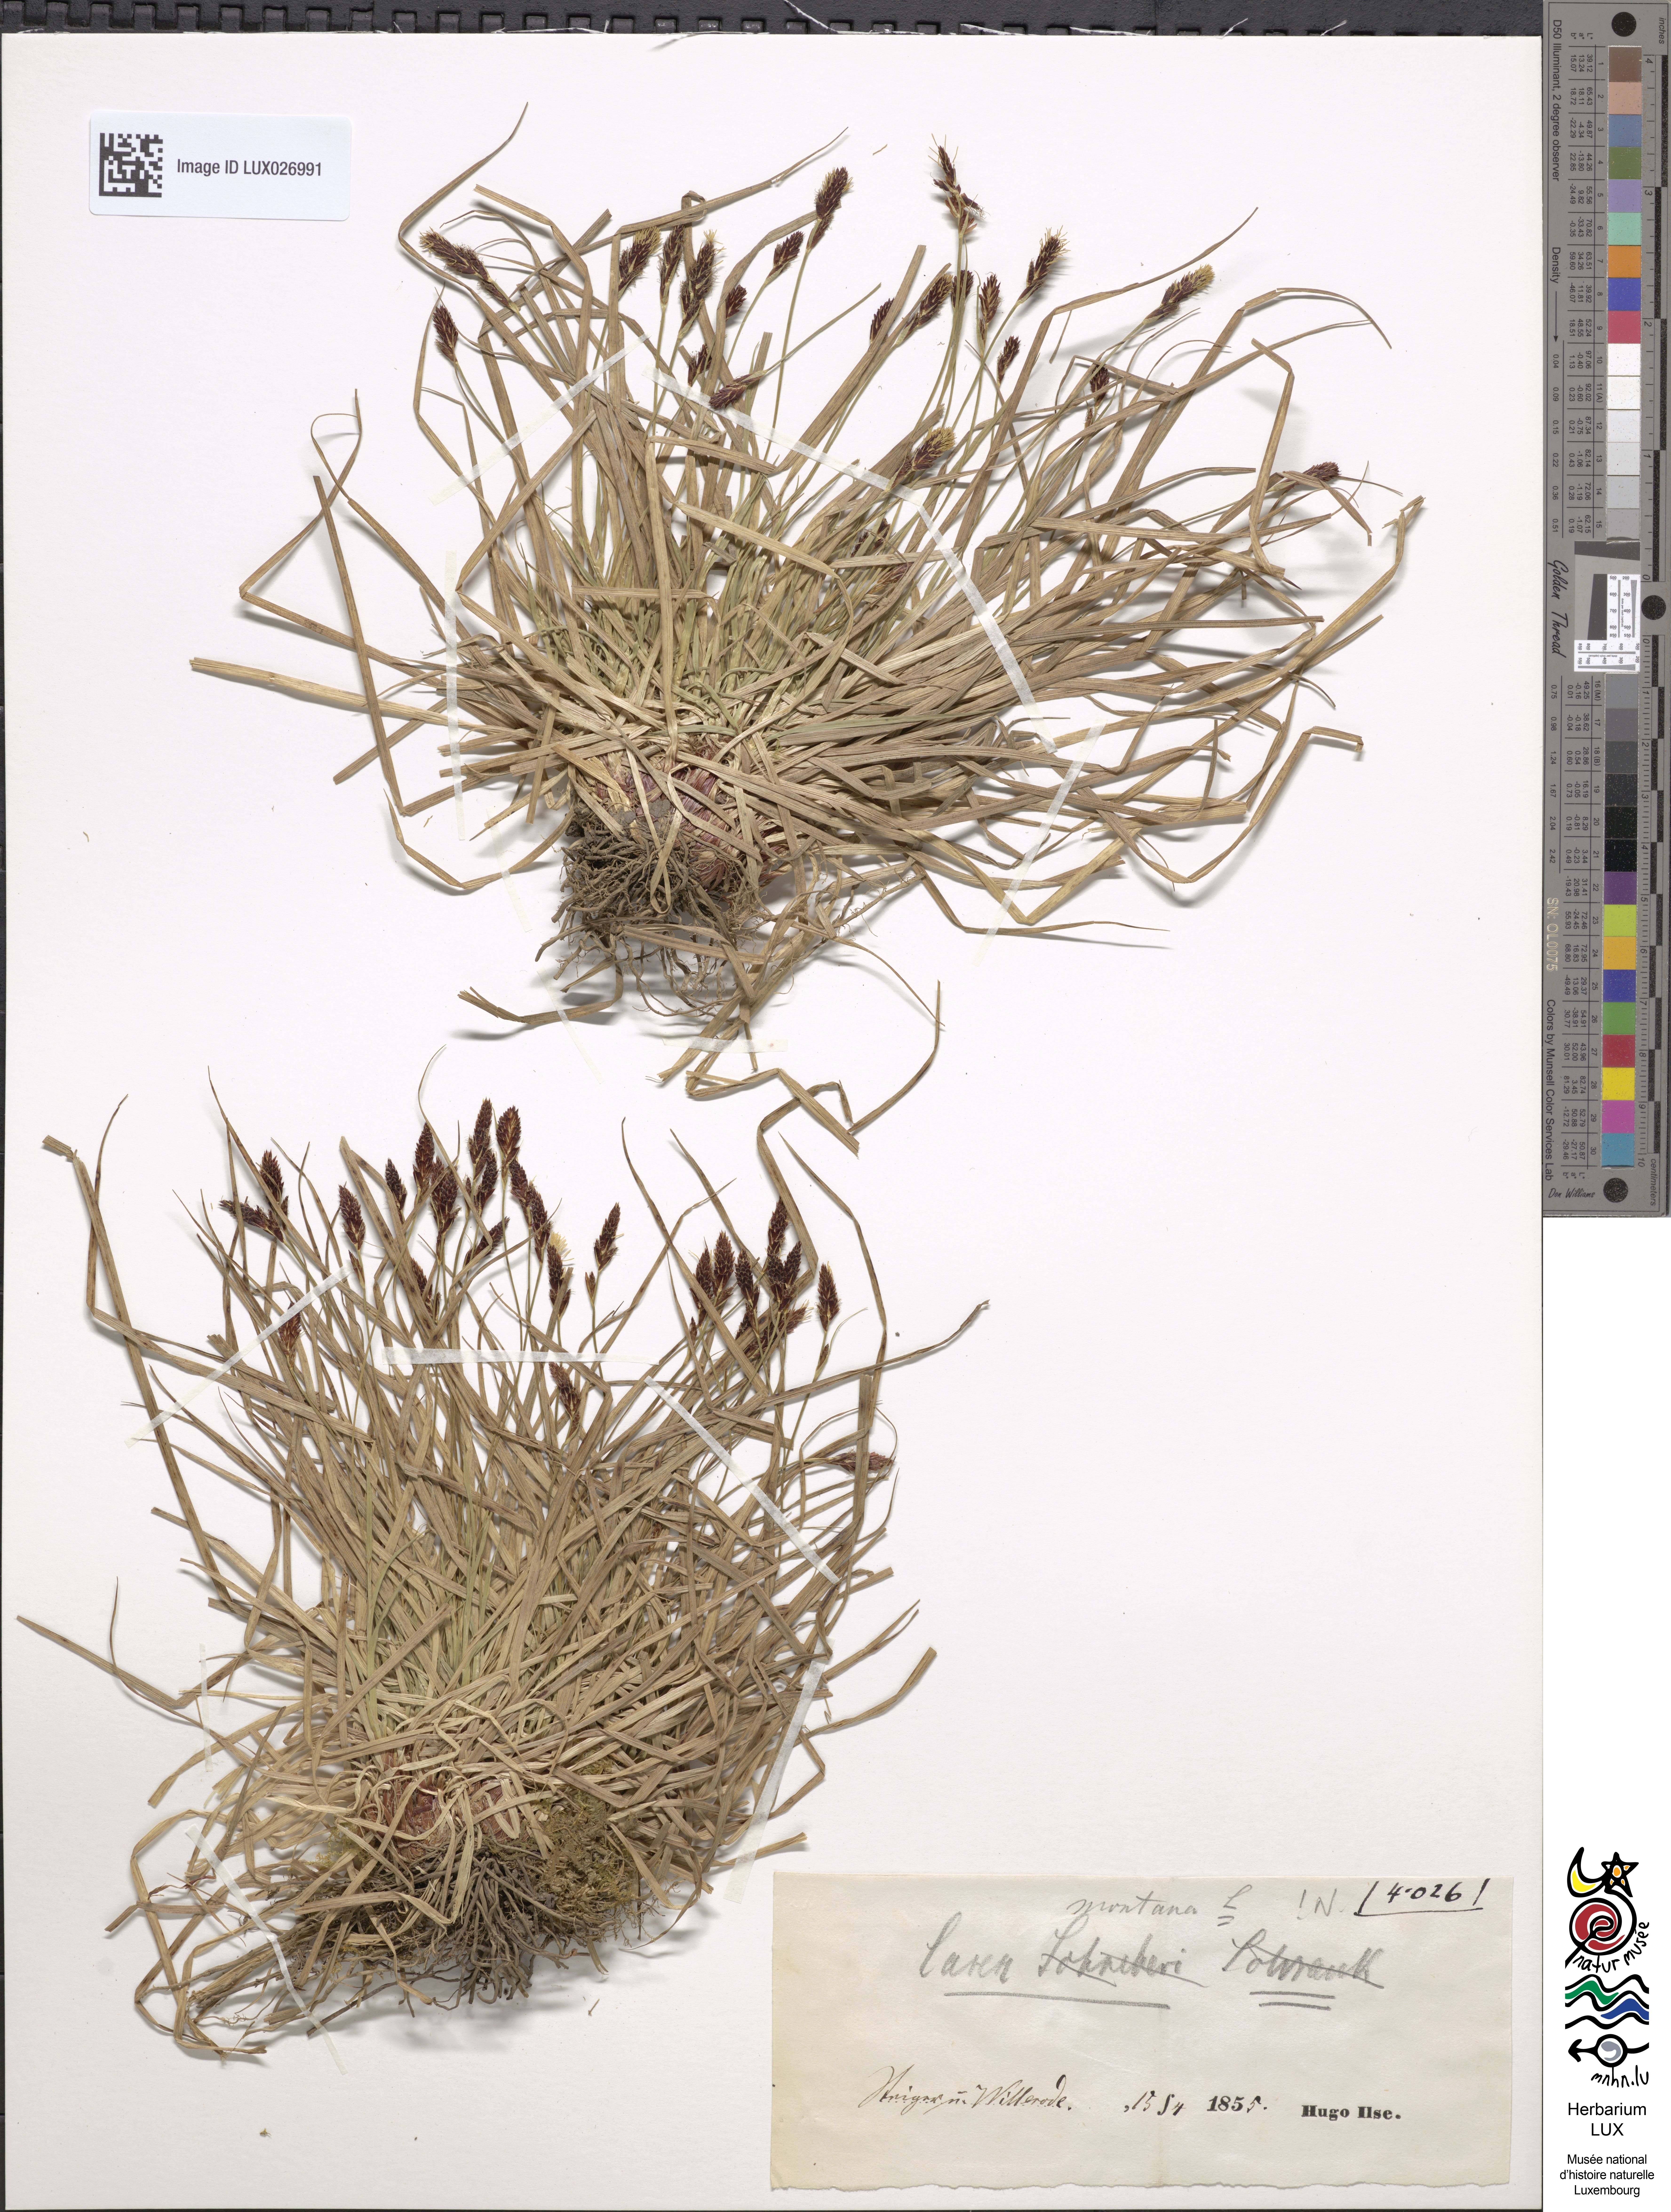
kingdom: Plantae
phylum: Tracheophyta
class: Liliopsida
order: Poales
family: Cyperaceae
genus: Carex
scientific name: Carex montana
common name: Soft-leaved sedge
